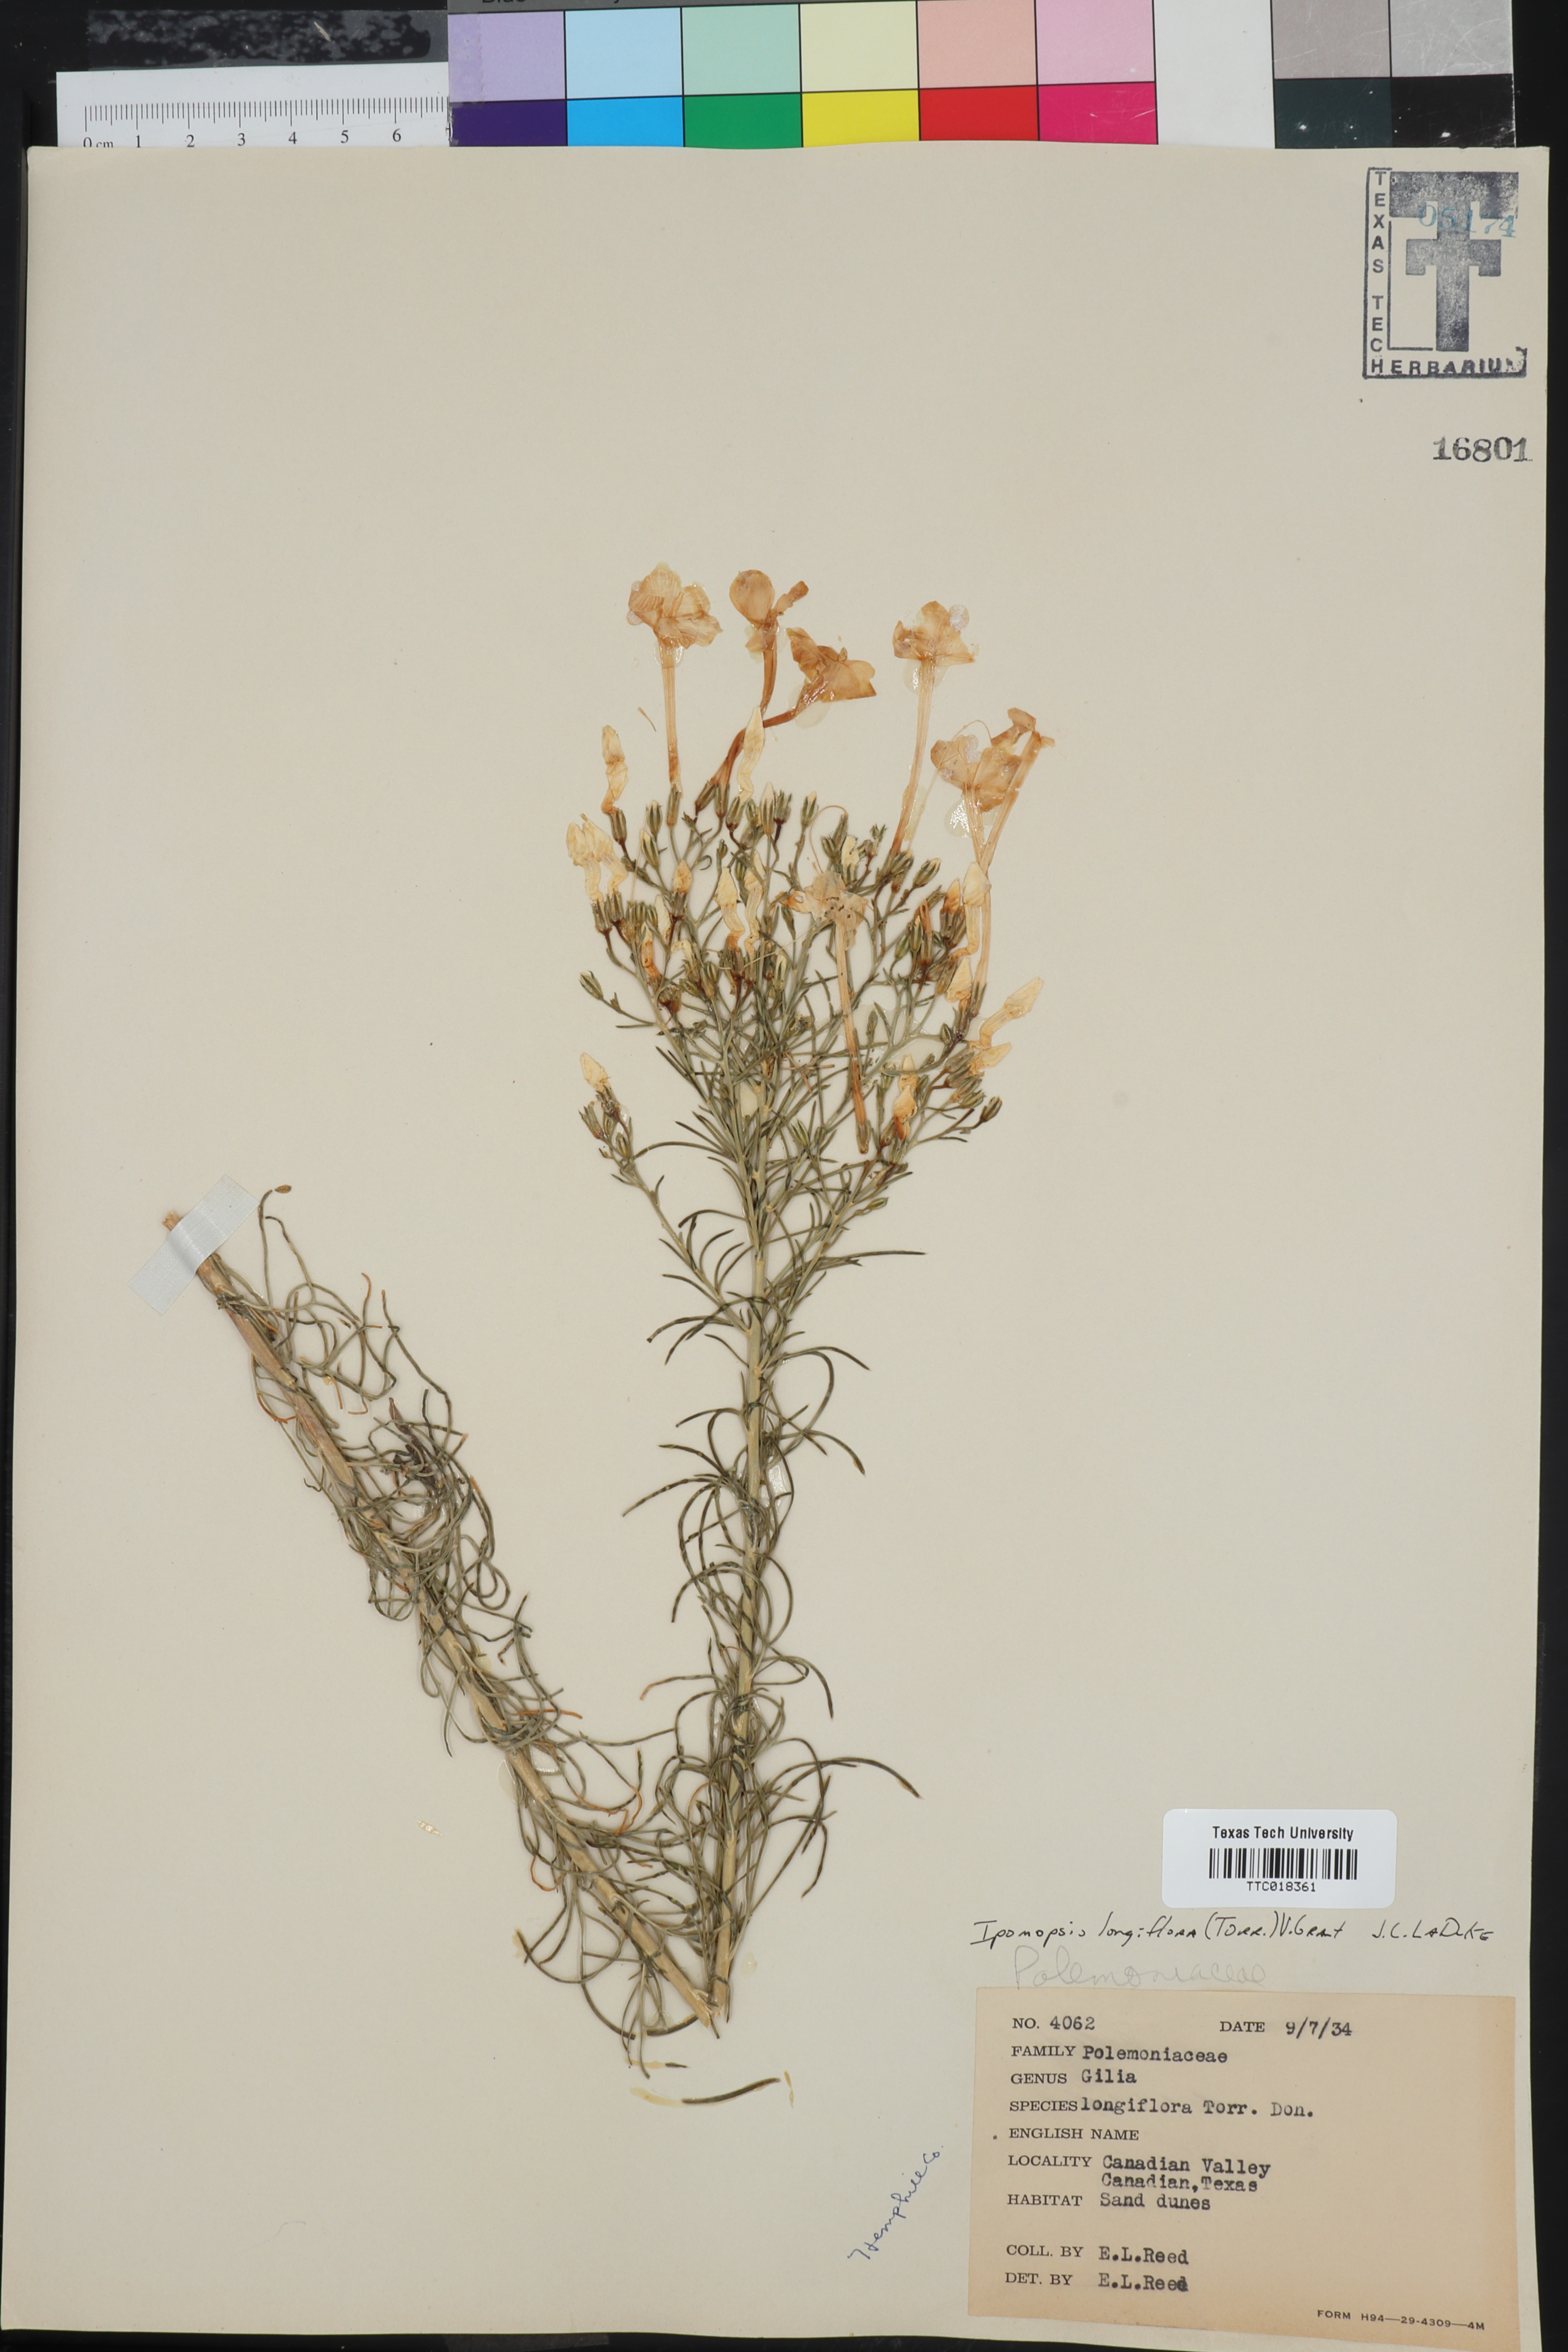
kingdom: Plantae
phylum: Tracheophyta
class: Magnoliopsida
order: Ericales
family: Polemoniaceae
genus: Ipomopsis
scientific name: Ipomopsis longiflora
